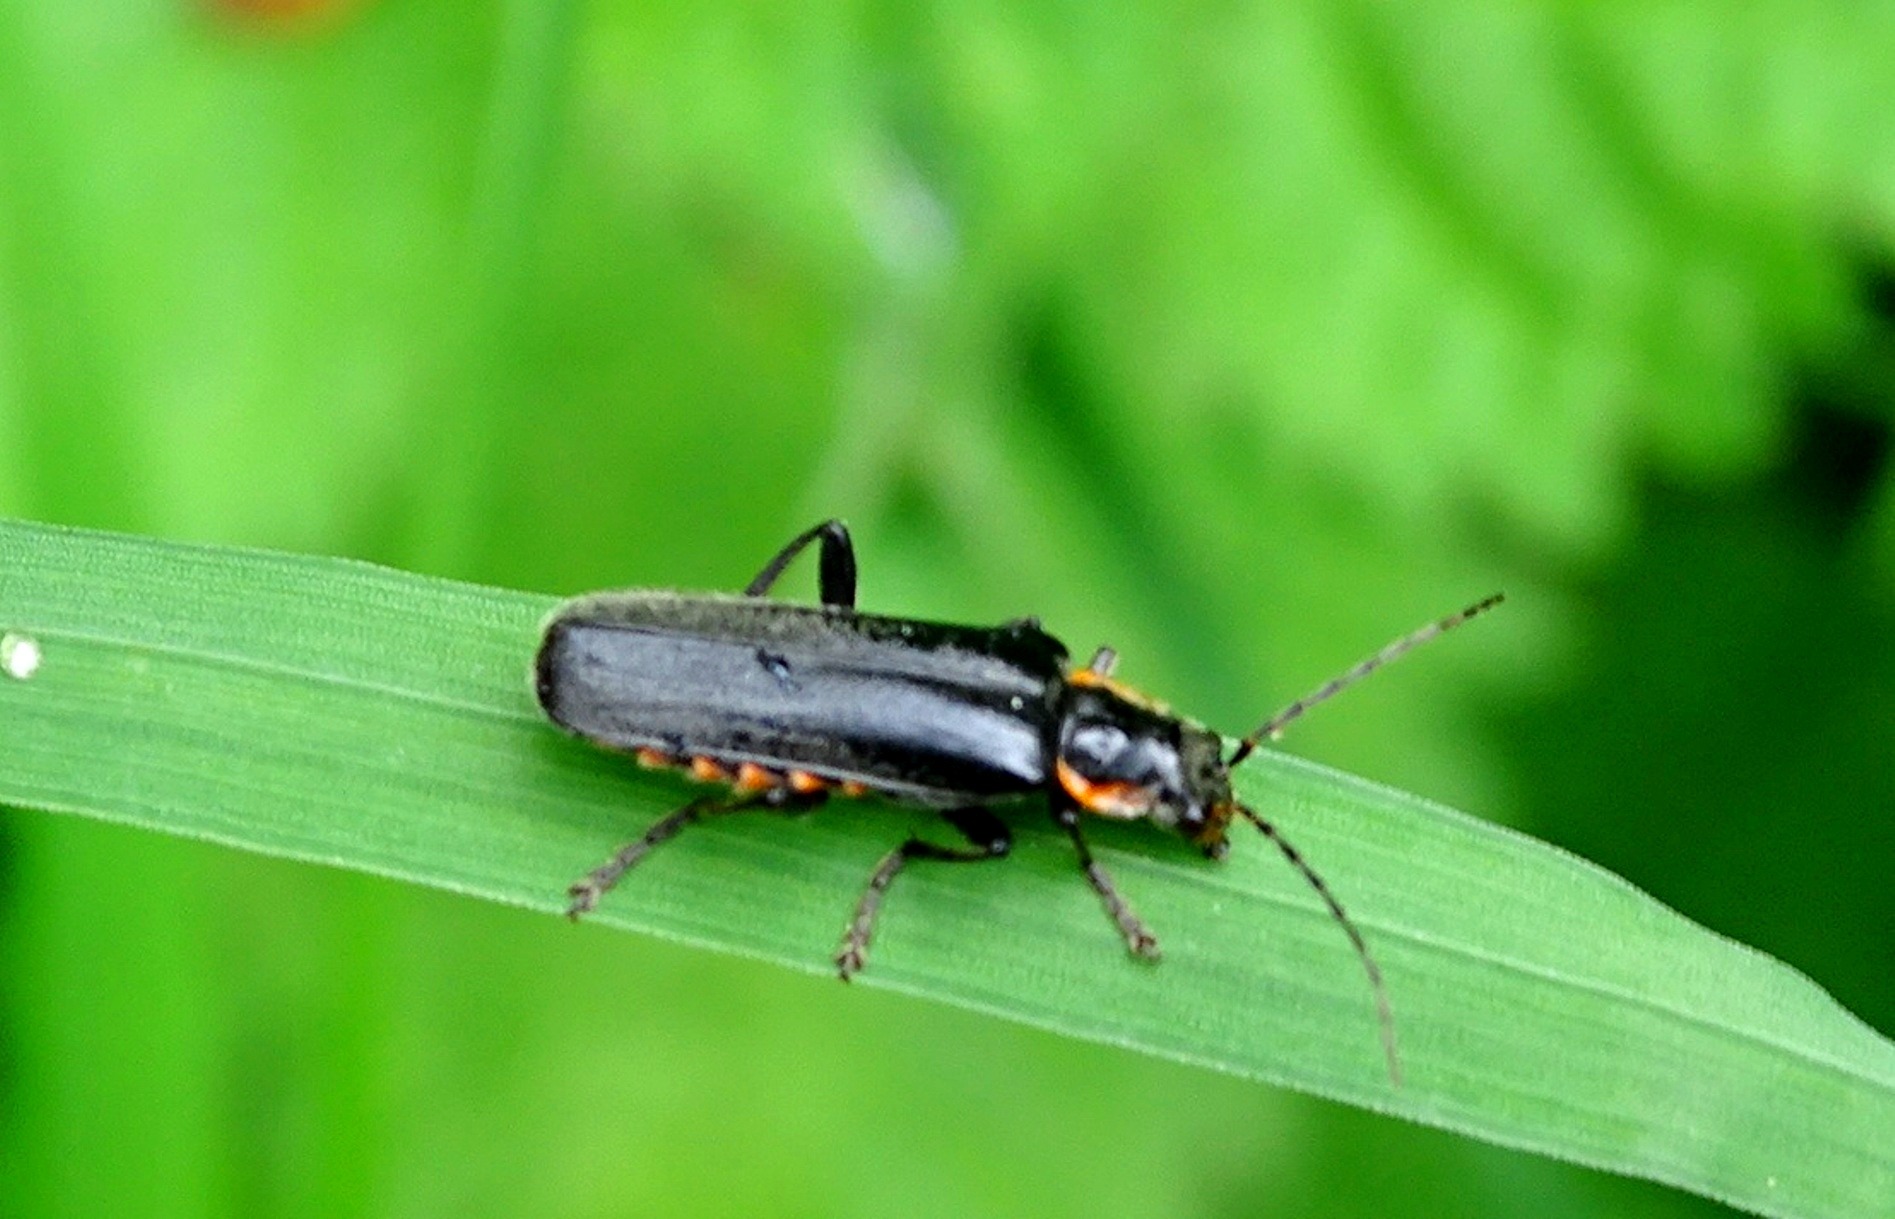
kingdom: Animalia
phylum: Arthropoda
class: Insecta
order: Coleoptera
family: Cantharidae
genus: Cantharis
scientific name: Cantharis obscura
